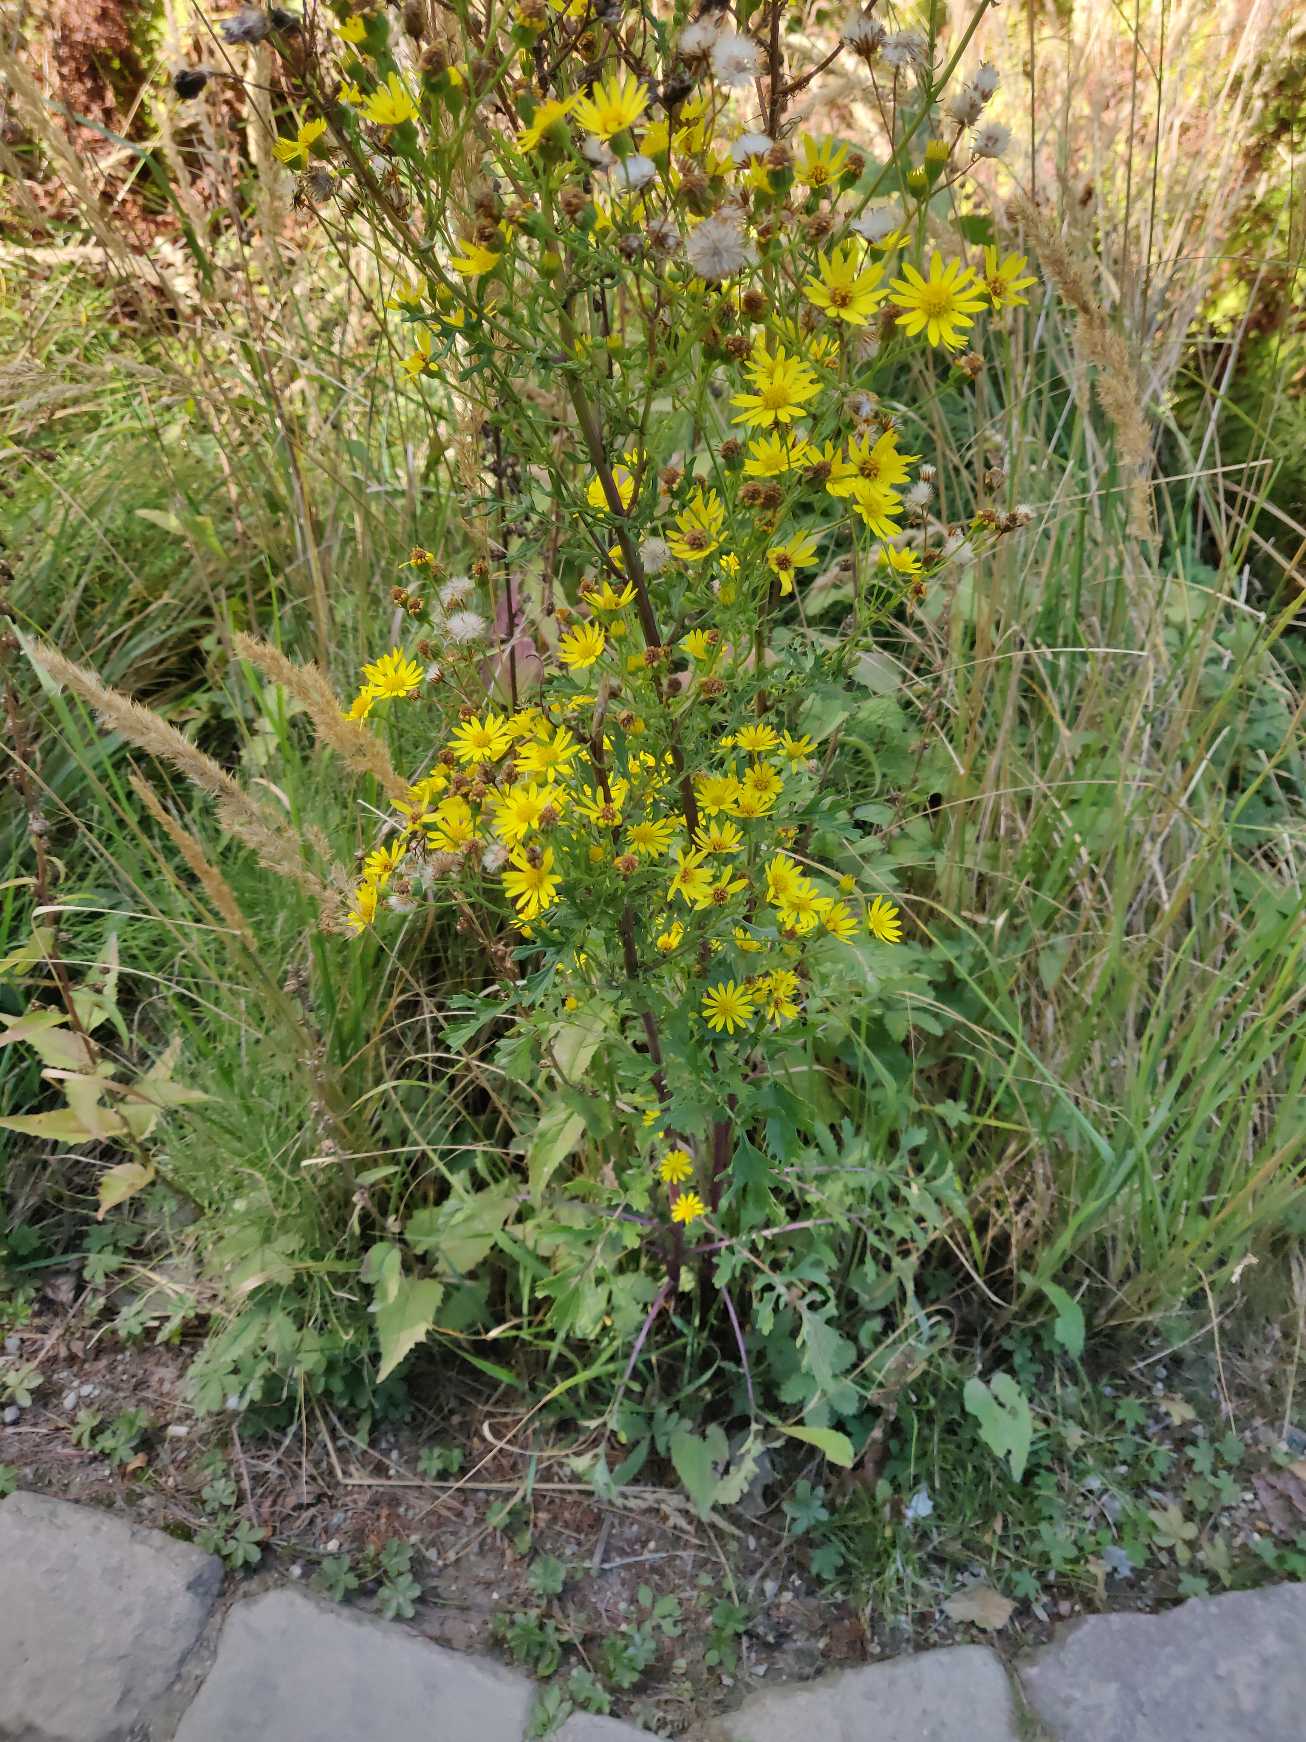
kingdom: Plantae
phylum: Tracheophyta
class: Magnoliopsida
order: Asterales
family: Asteraceae
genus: Jacobaea
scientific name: Jacobaea
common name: Jacobaea
